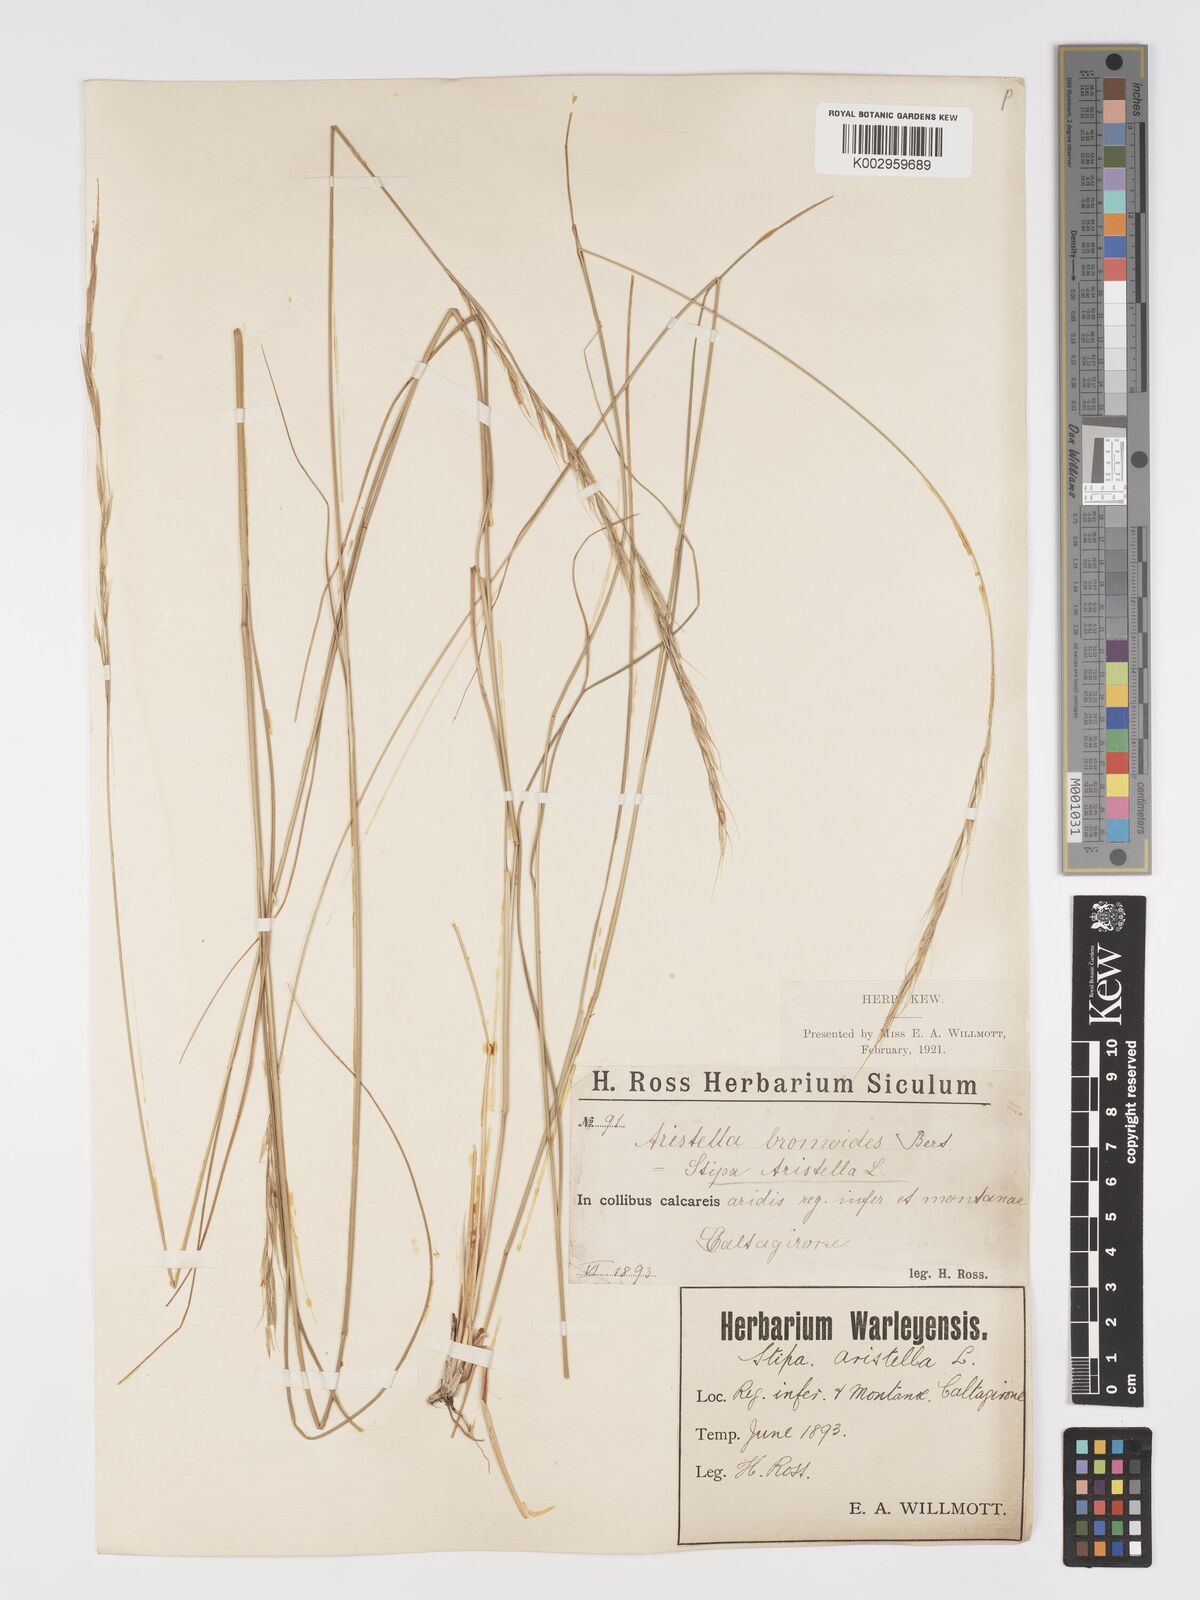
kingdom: Plantae
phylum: Tracheophyta
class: Liliopsida
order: Poales
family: Poaceae
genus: Achnatherum
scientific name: Achnatherum bromoides
